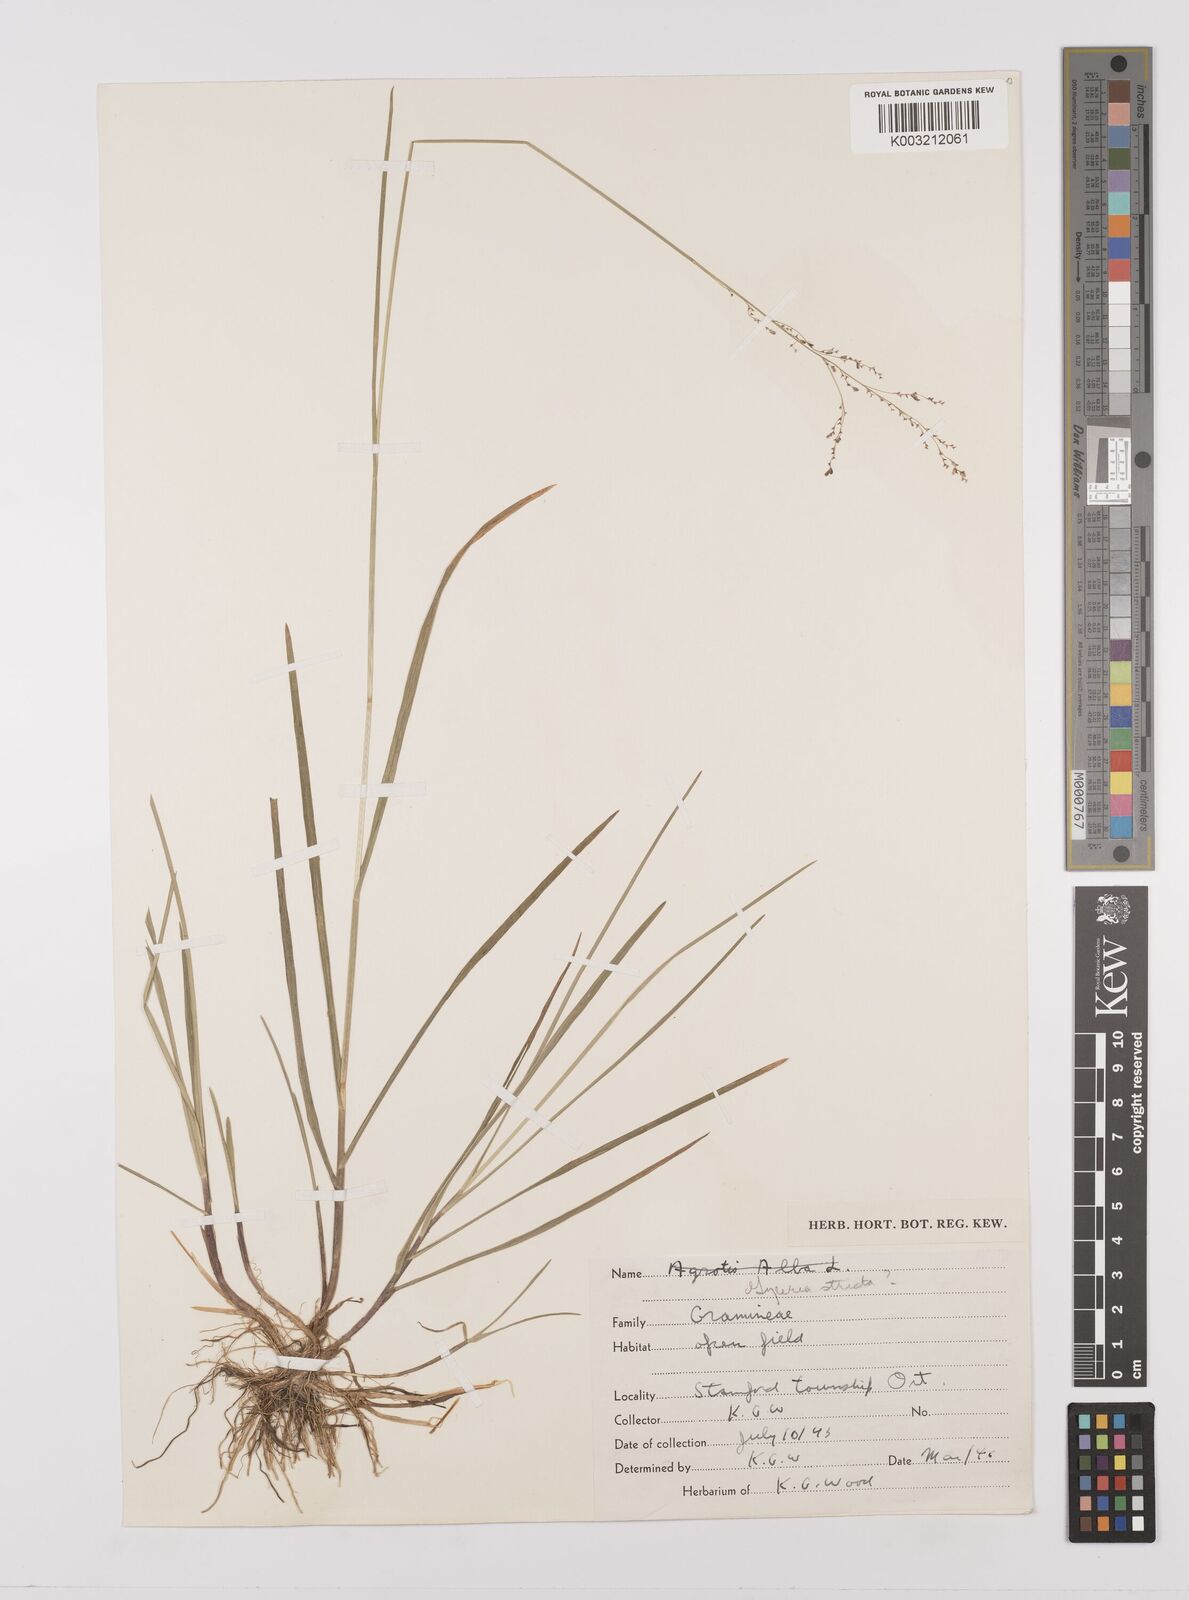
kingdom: Plantae
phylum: Tracheophyta
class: Liliopsida
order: Poales
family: Poaceae
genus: Glyceria
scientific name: Glyceria striata
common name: Fowl manna grass
